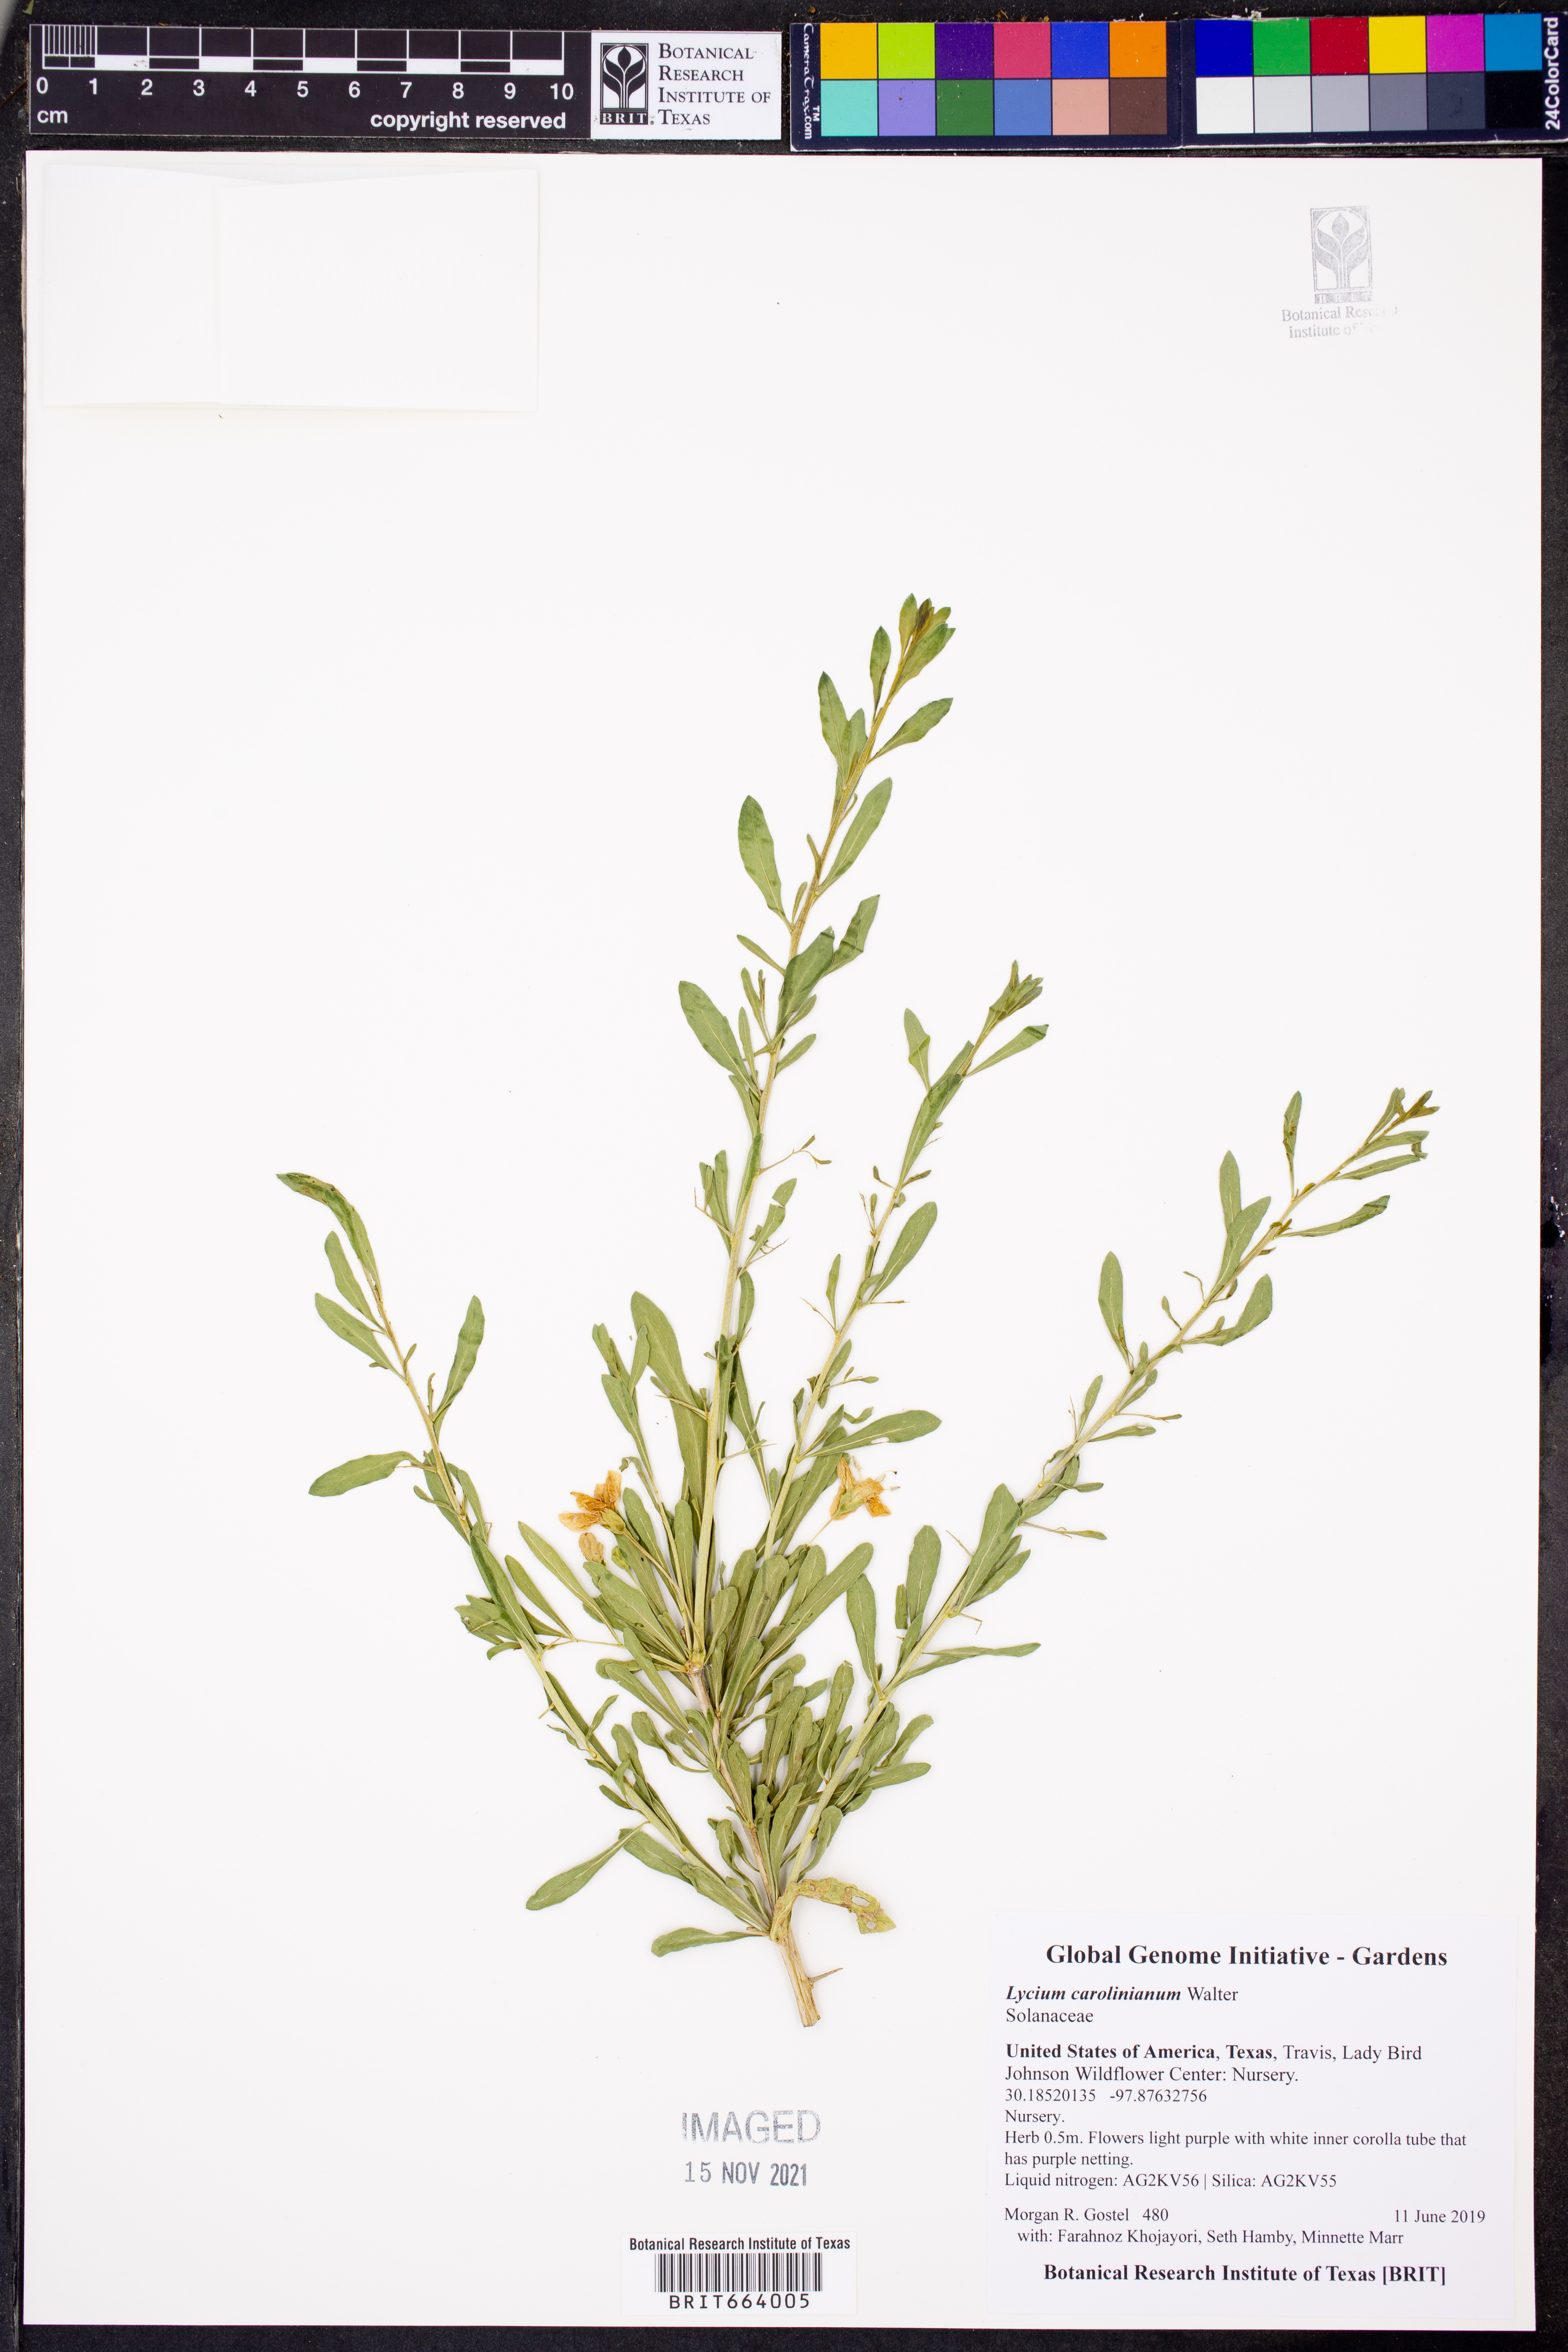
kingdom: Plantae
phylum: Tracheophyta
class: Magnoliopsida
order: Solanales
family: Solanaceae
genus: Lycium
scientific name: Lycium carolinianum
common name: Christmasberry
